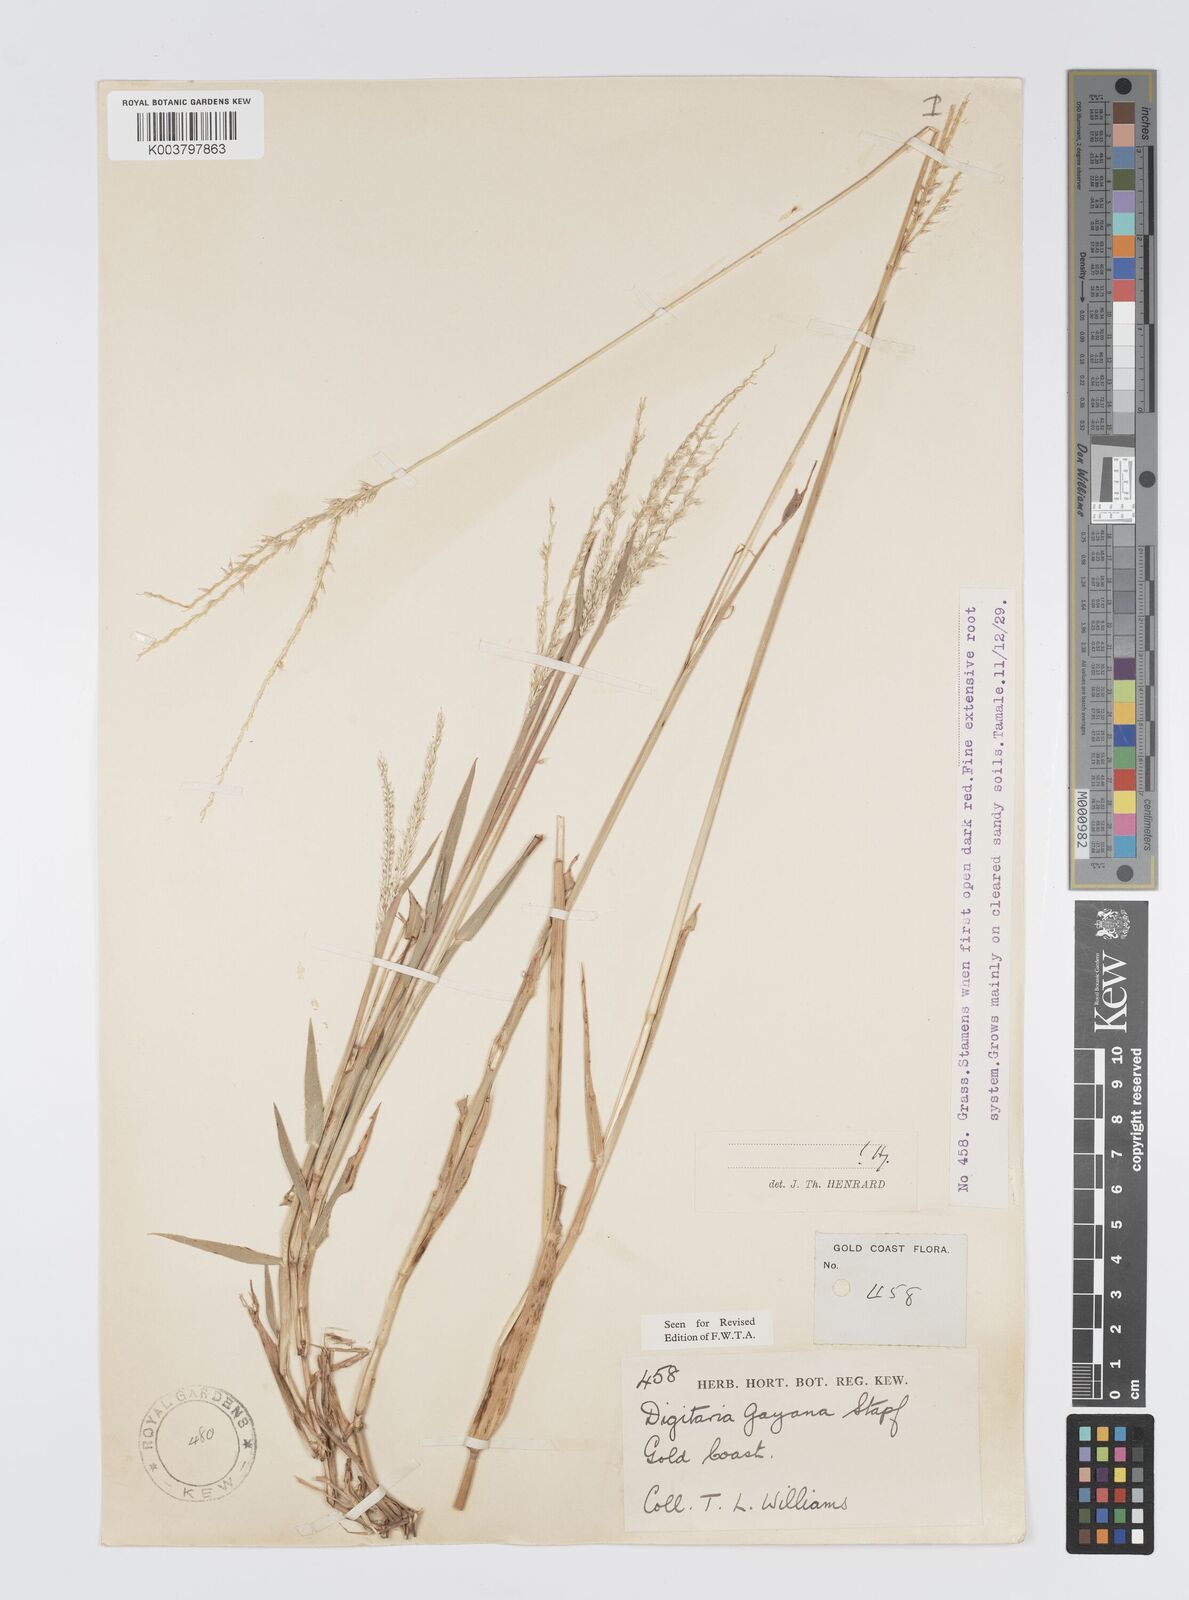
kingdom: Plantae
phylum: Tracheophyta
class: Liliopsida
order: Poales
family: Poaceae
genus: Digitaria
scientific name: Digitaria gayana
